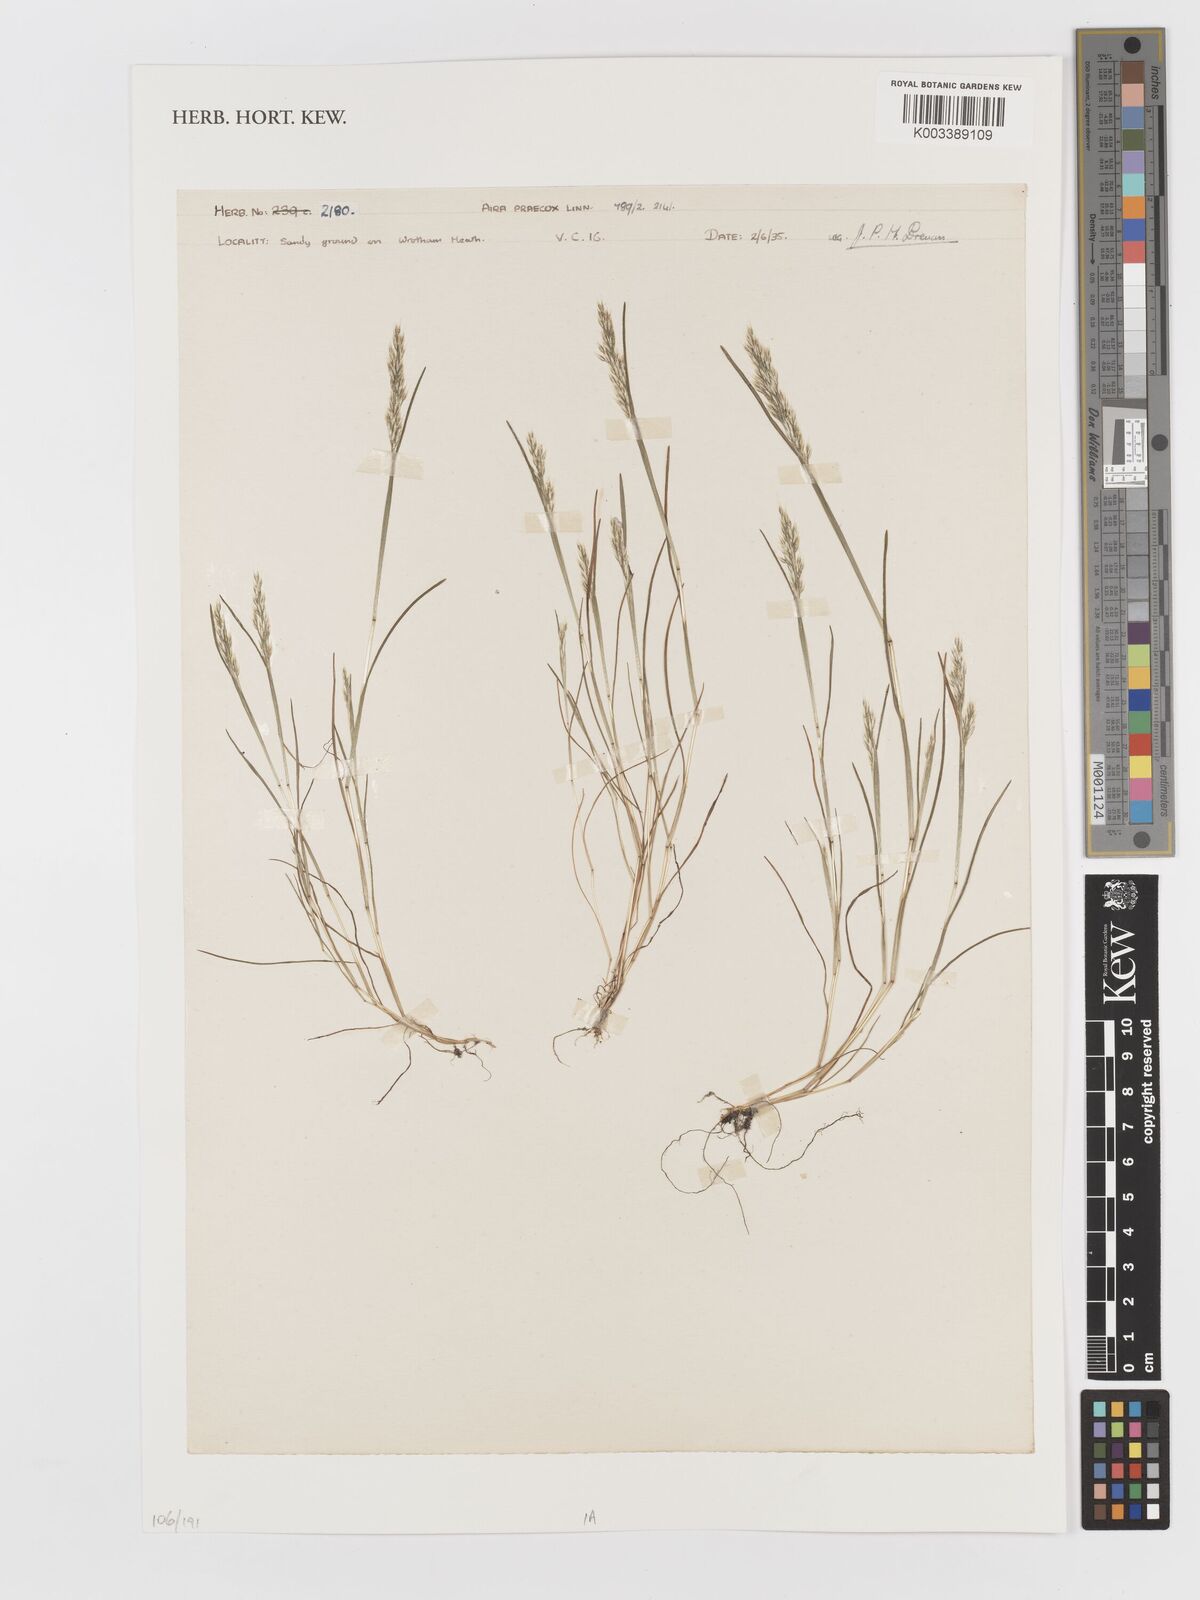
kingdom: Plantae
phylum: Tracheophyta
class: Liliopsida
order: Poales
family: Poaceae
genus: Aira
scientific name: Aira praecox
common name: Early hair-grass
